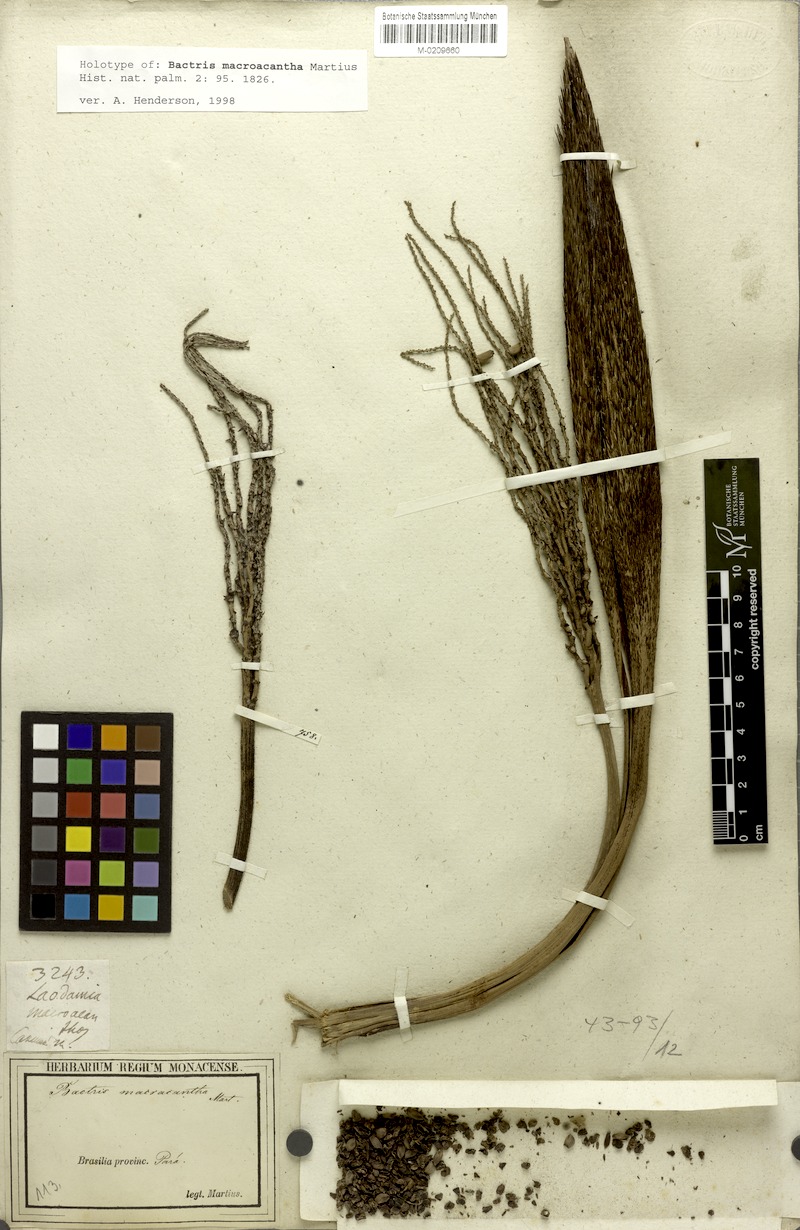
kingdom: Plantae
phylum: Tracheophyta
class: Liliopsida
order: Arecales
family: Arecaceae
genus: Bactris
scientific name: Bactris macroacantha
